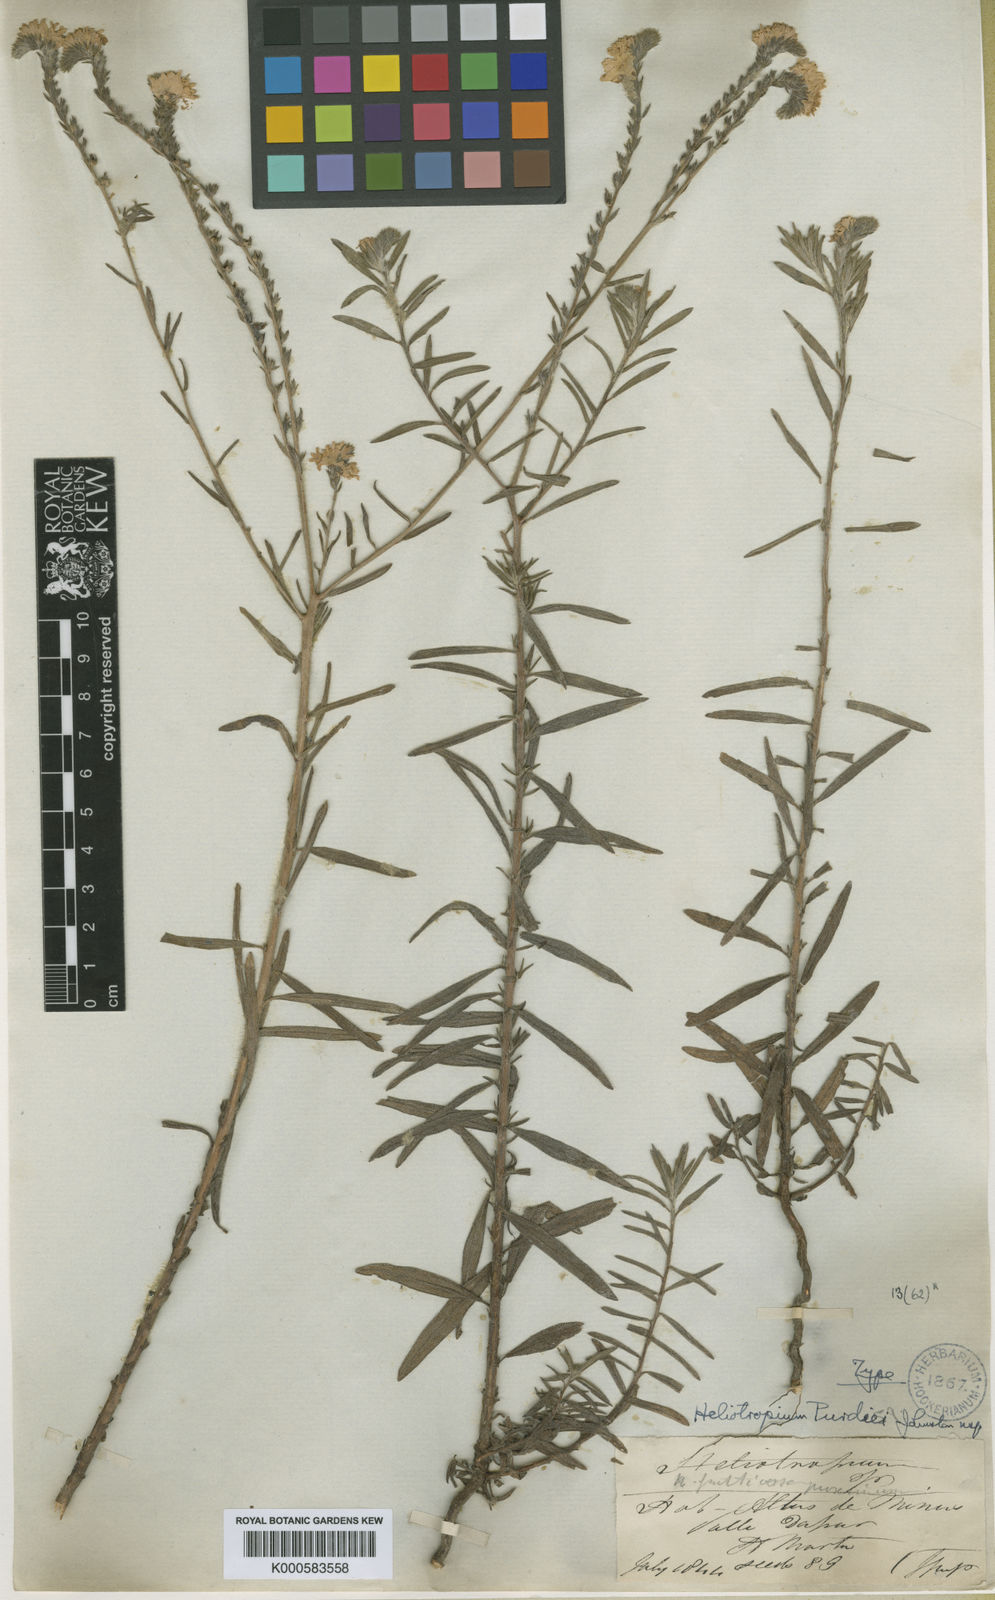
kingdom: Plantae
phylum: Tracheophyta
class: Magnoliopsida
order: Boraginales
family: Heliotropiaceae
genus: Euploca
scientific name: Euploca purdiei
